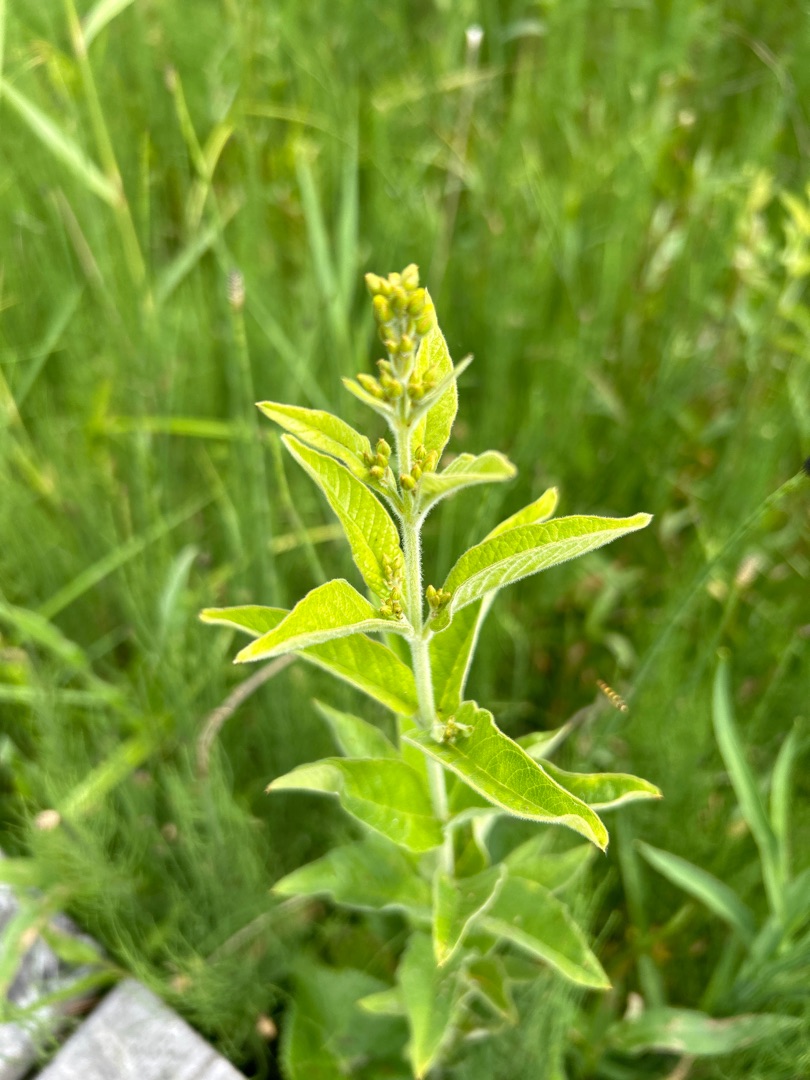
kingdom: Plantae
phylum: Tracheophyta
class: Magnoliopsida
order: Ericales
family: Primulaceae
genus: Lysimachia
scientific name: Lysimachia vulgaris
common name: Almindelig fredløs
